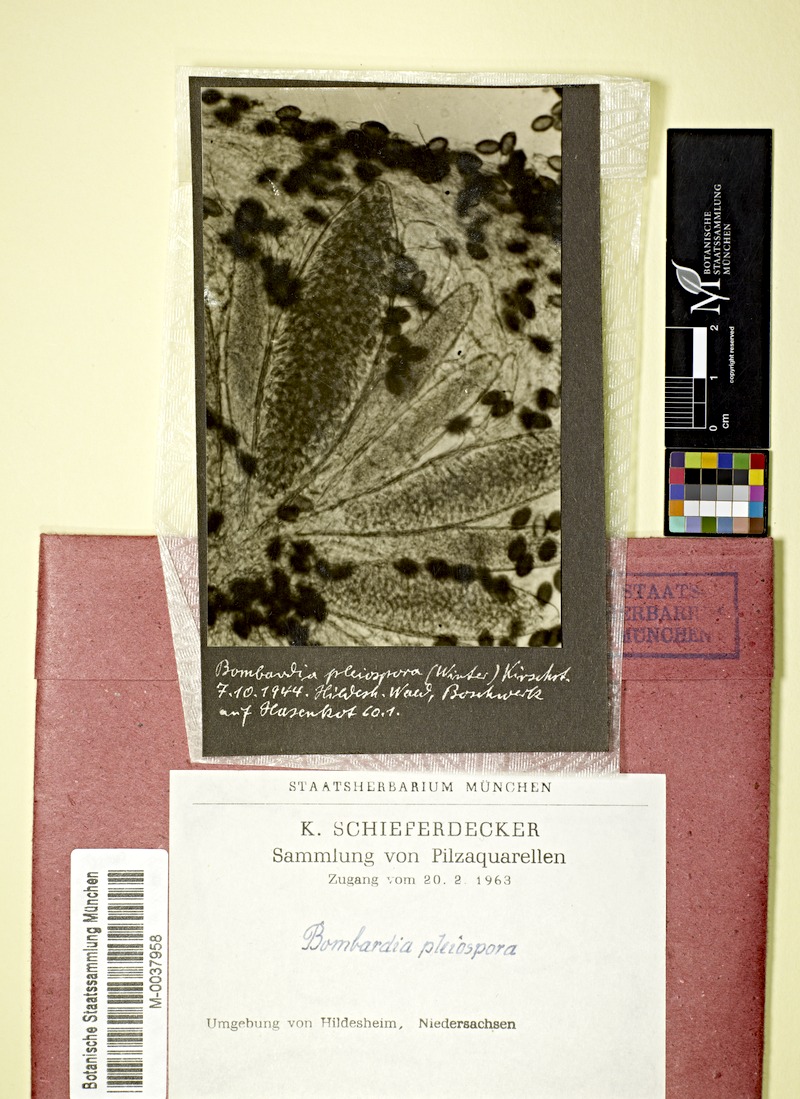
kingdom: Fungi
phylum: Ascomycota
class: Sordariomycetes
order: Sordariales
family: Naviculisporaceae
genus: Rhypophila
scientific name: Rhypophila pleiospora
